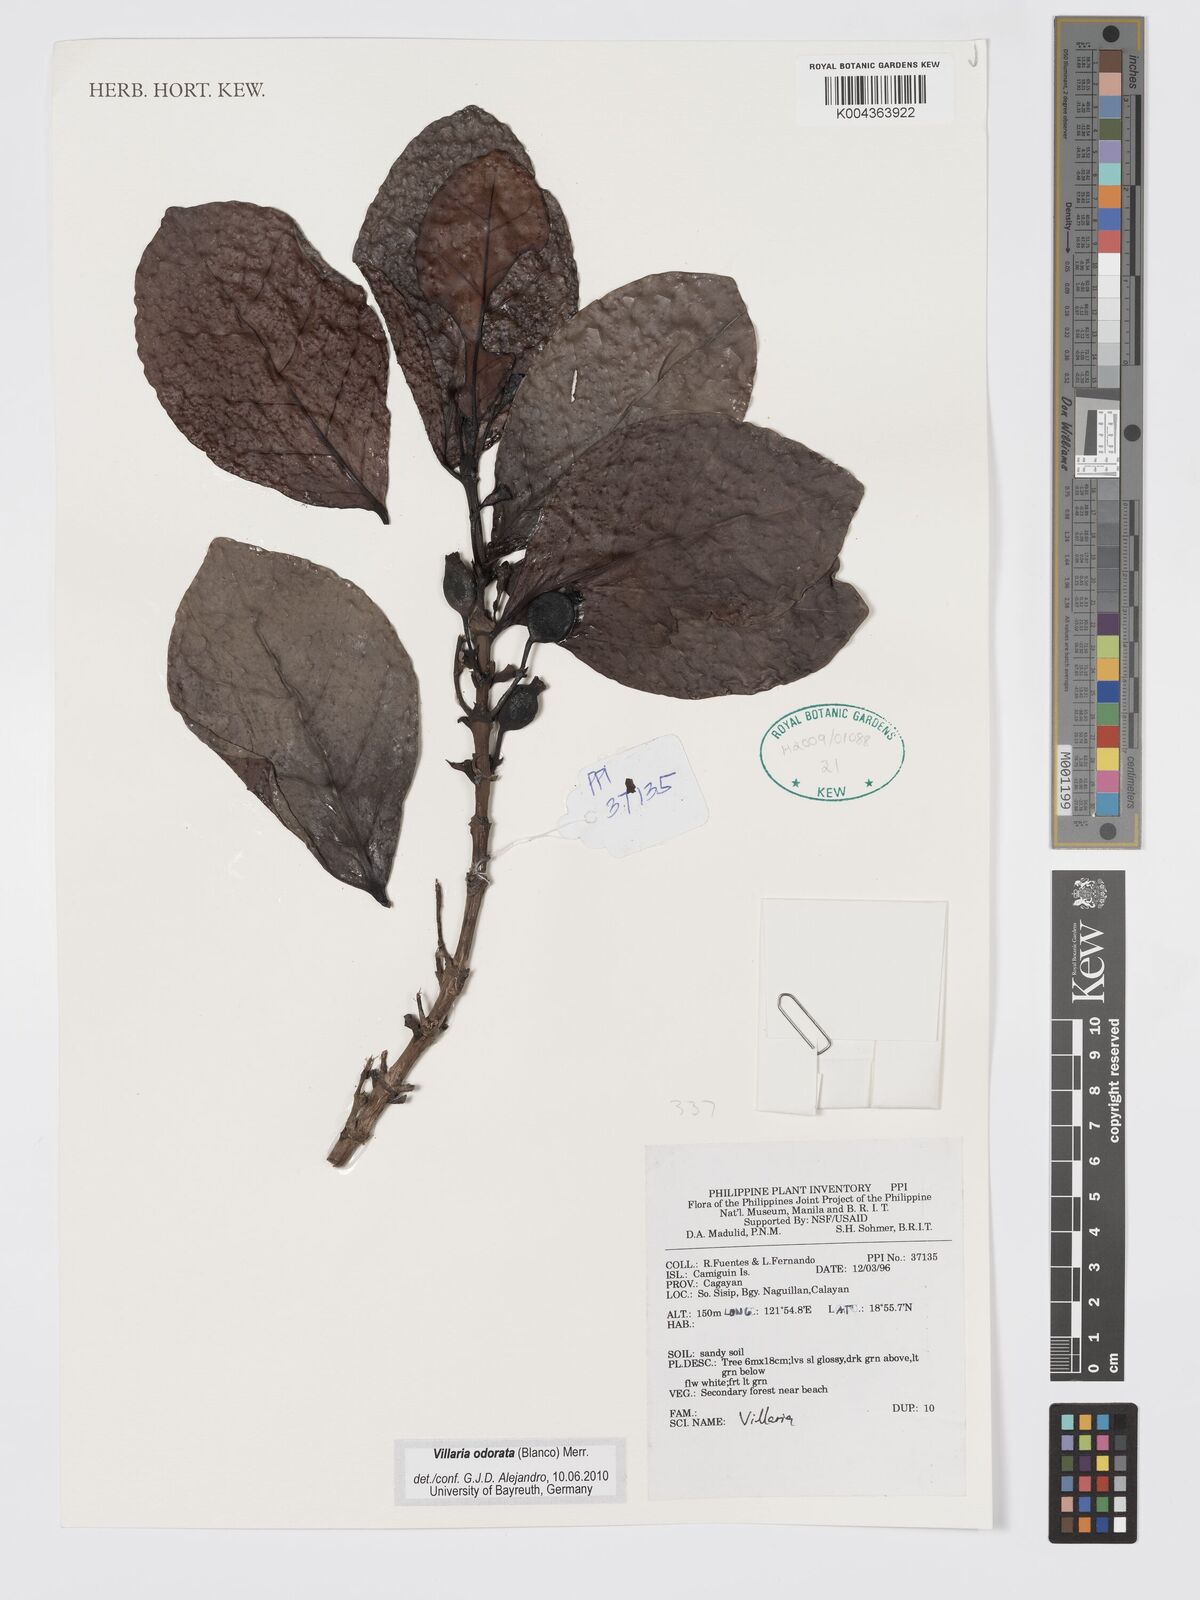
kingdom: Plantae
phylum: Tracheophyta
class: Magnoliopsida
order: Gentianales
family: Rubiaceae
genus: Villaria
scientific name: Villaria odorata
